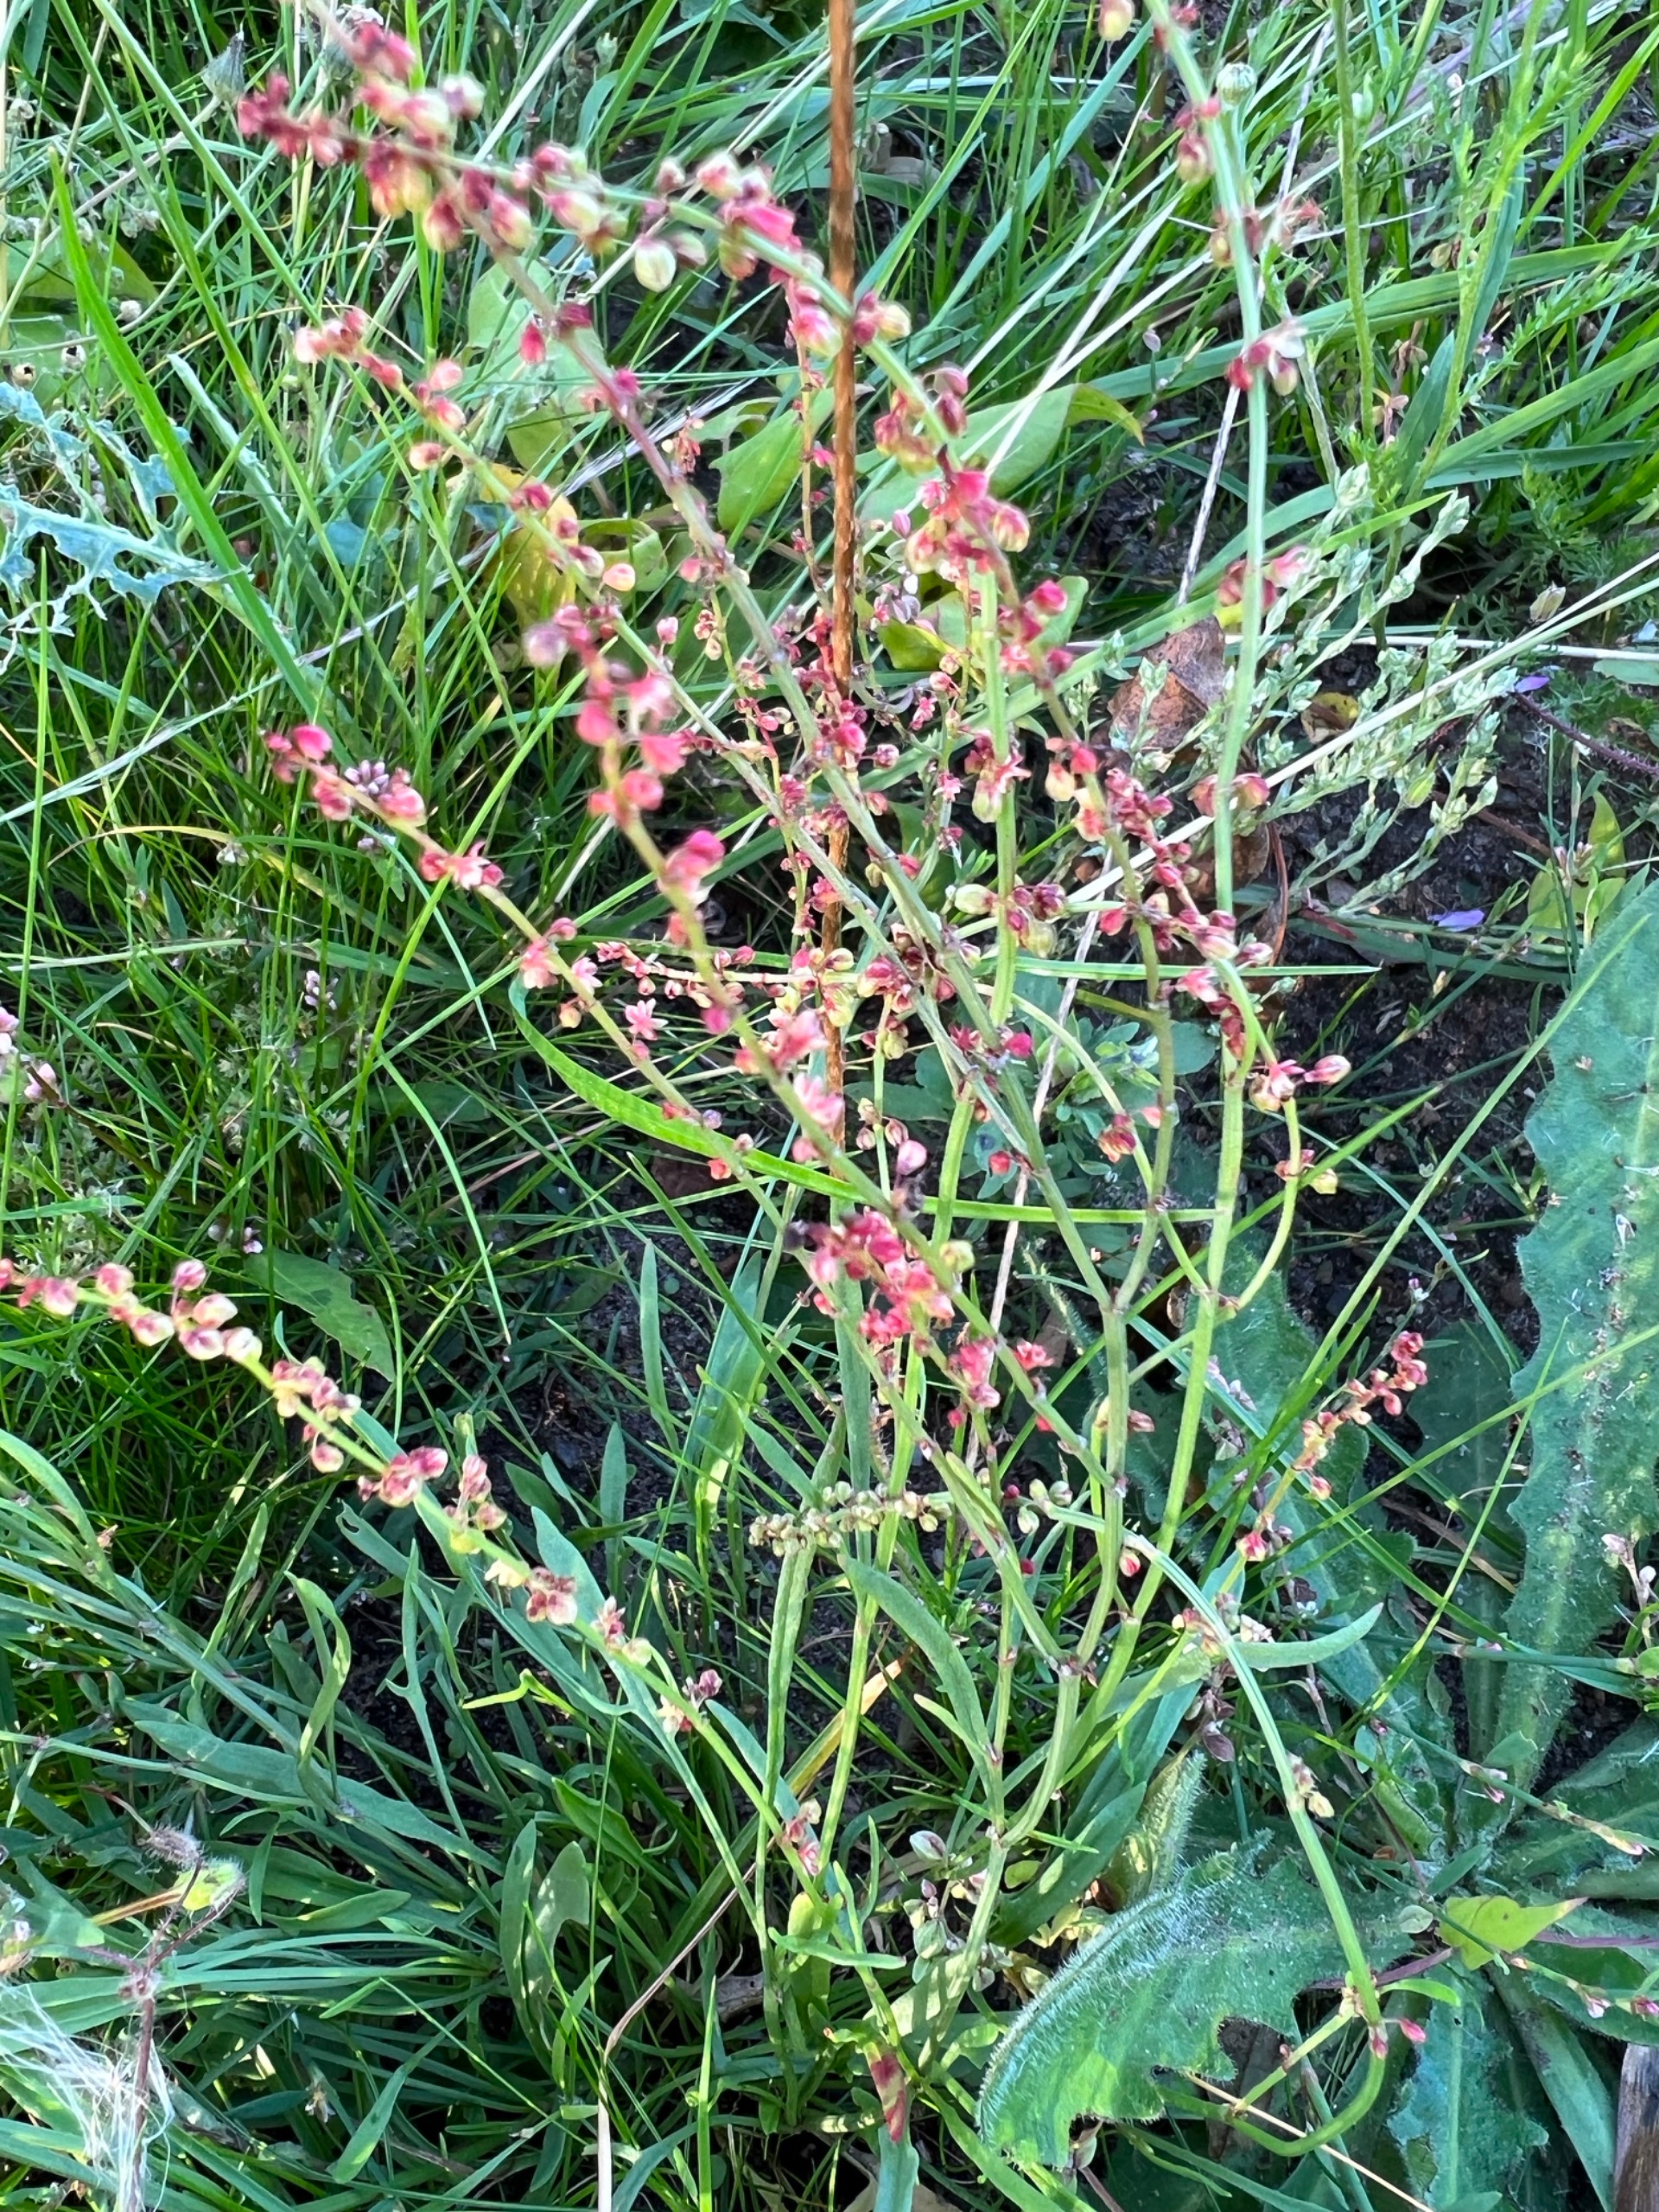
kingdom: Plantae
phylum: Tracheophyta
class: Magnoliopsida
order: Caryophyllales
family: Polygonaceae
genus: Rumex
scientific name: Rumex acetosella
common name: Finbladet rødknæ
